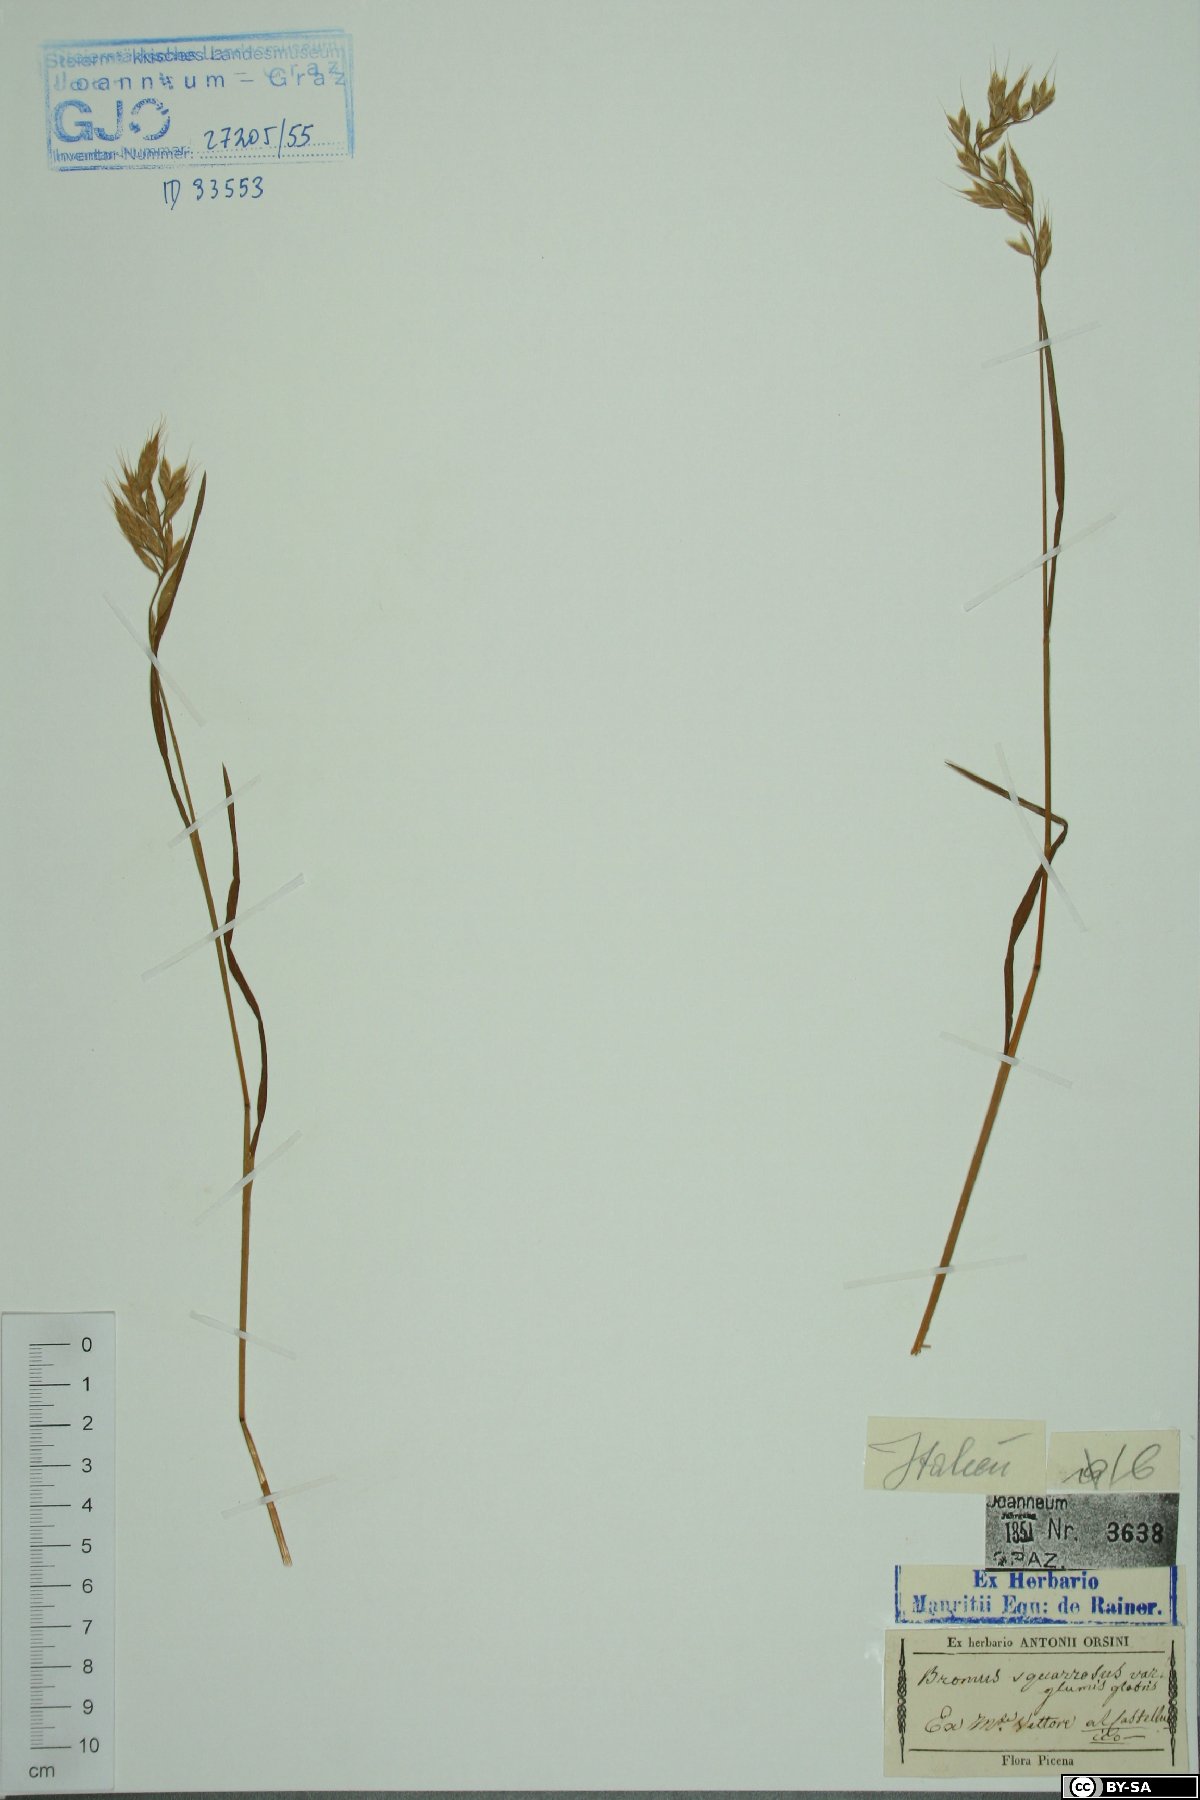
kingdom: Plantae
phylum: Tracheophyta
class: Liliopsida
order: Poales
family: Poaceae
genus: Bromus
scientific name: Bromus squarrosus
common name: Corn brome
